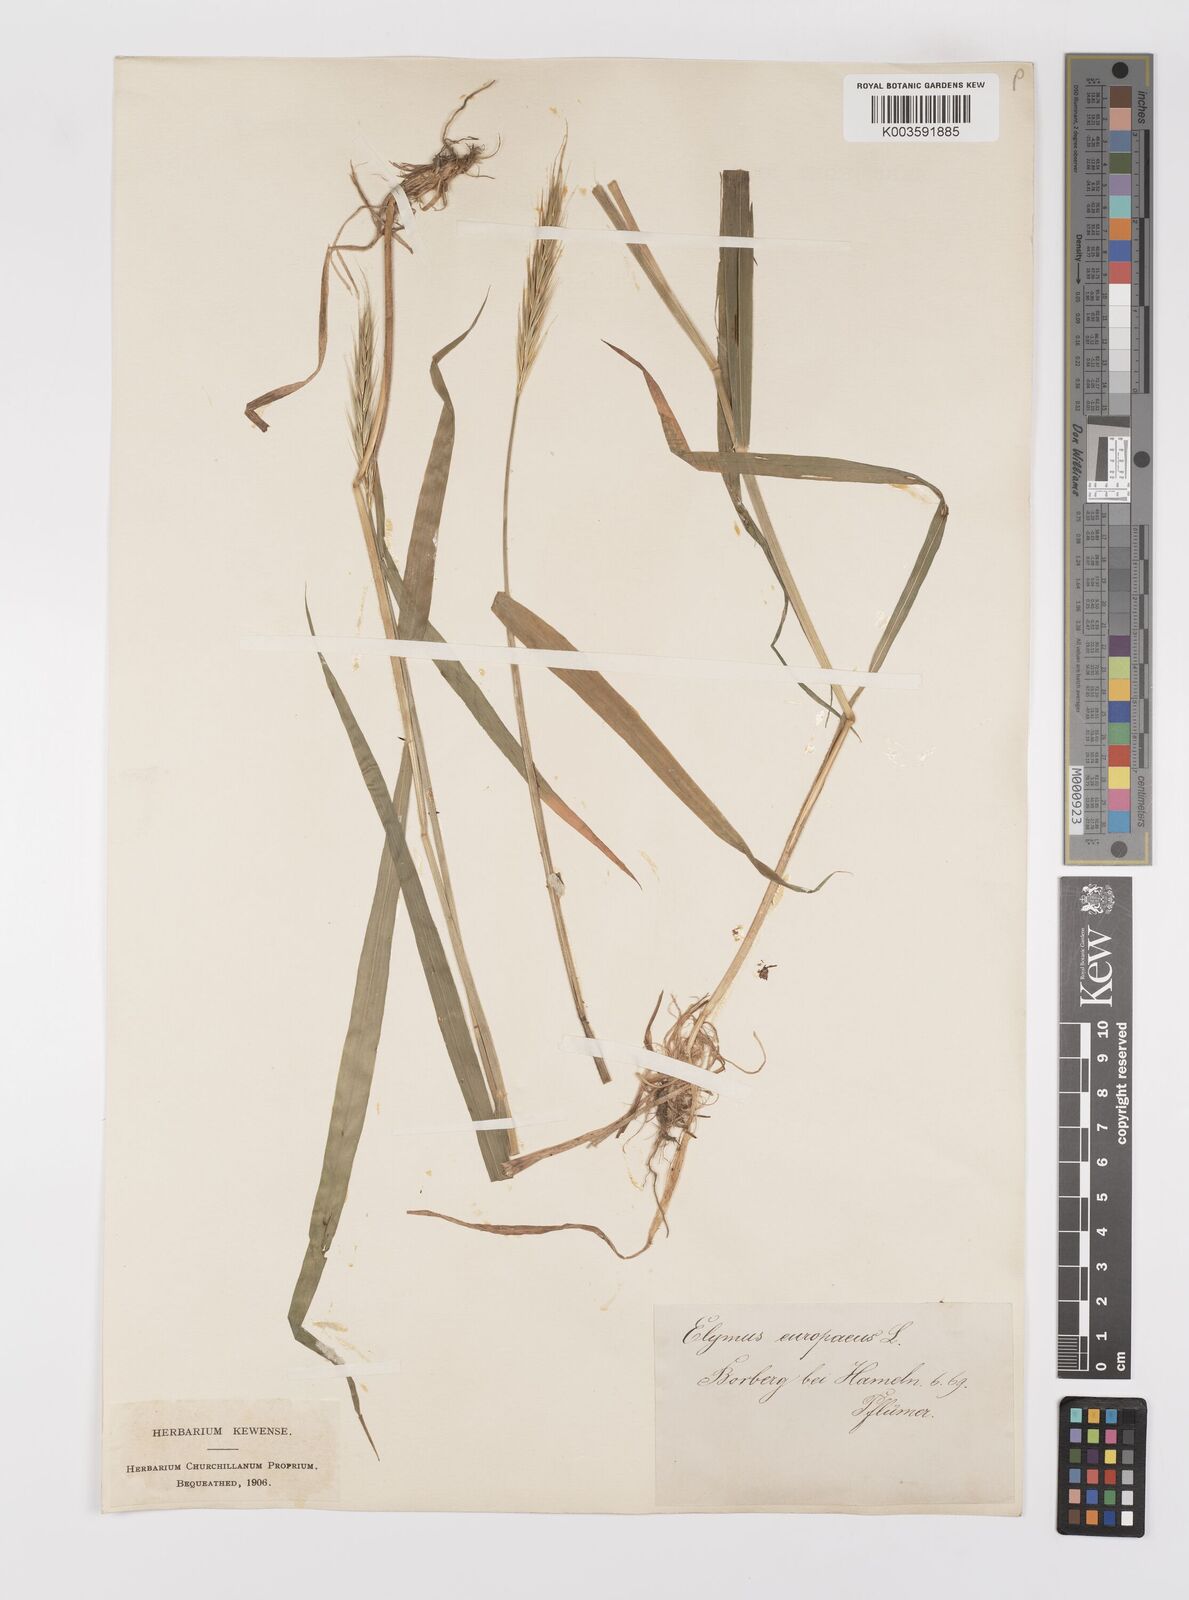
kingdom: Plantae
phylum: Tracheophyta
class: Liliopsida
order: Poales
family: Poaceae
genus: Hordelymus
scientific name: Hordelymus europaeus
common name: Wood-barley
